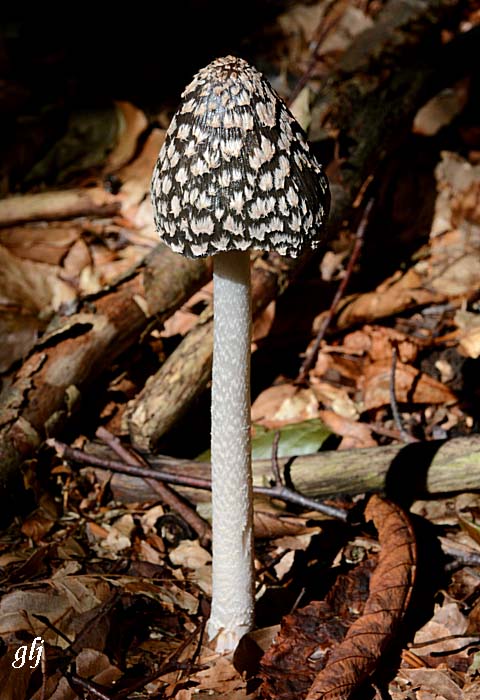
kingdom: Fungi
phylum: Basidiomycota
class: Agaricomycetes
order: Agaricales
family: Psathyrellaceae
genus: Coprinopsis
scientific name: Coprinopsis picacea
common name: skade-blækhat
